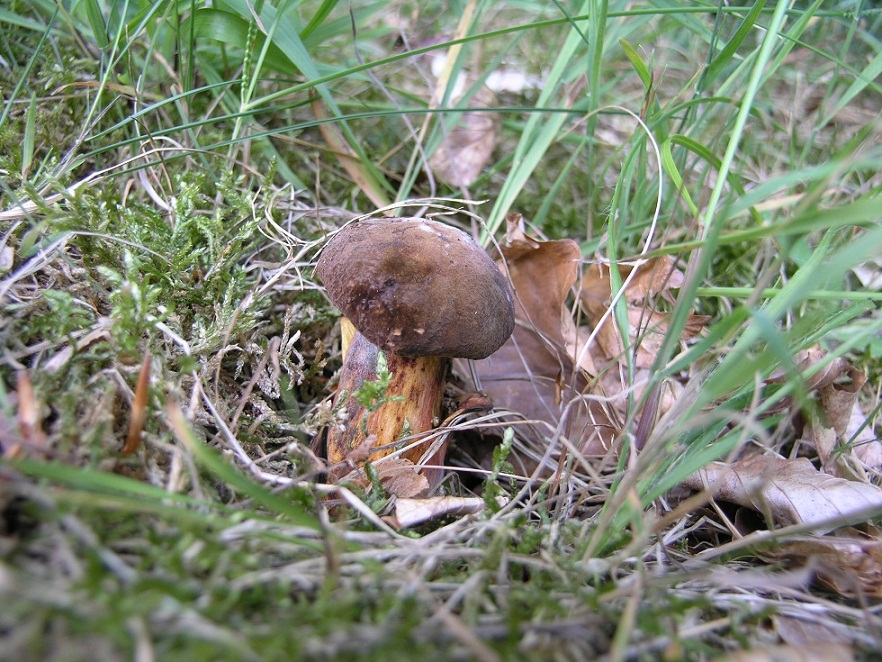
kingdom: Fungi
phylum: Basidiomycota
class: Agaricomycetes
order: Boletales
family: Boletaceae
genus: Neoboletus
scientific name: Neoboletus erythropus
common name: punktstokket indigorørhat
